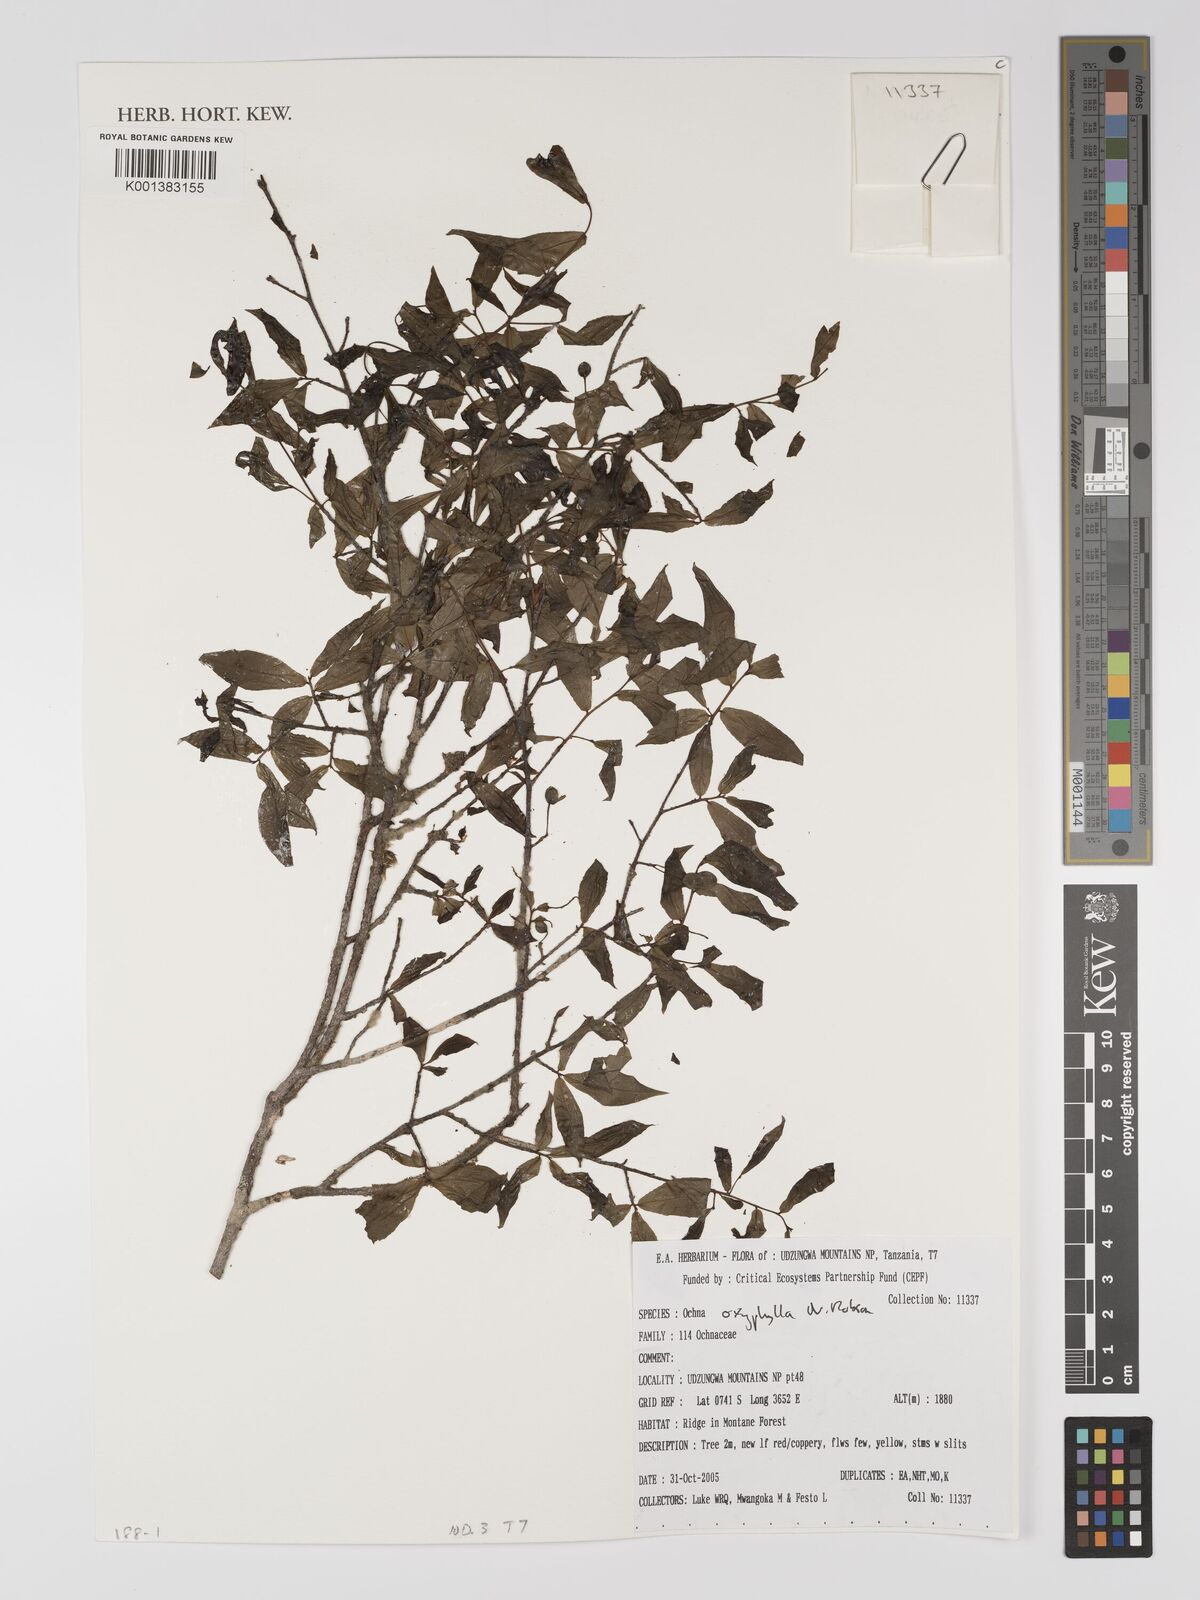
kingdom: Plantae
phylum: Tracheophyta
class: Magnoliopsida
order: Malpighiales
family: Ochnaceae
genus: Ochna
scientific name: Ochna oxyphylla
